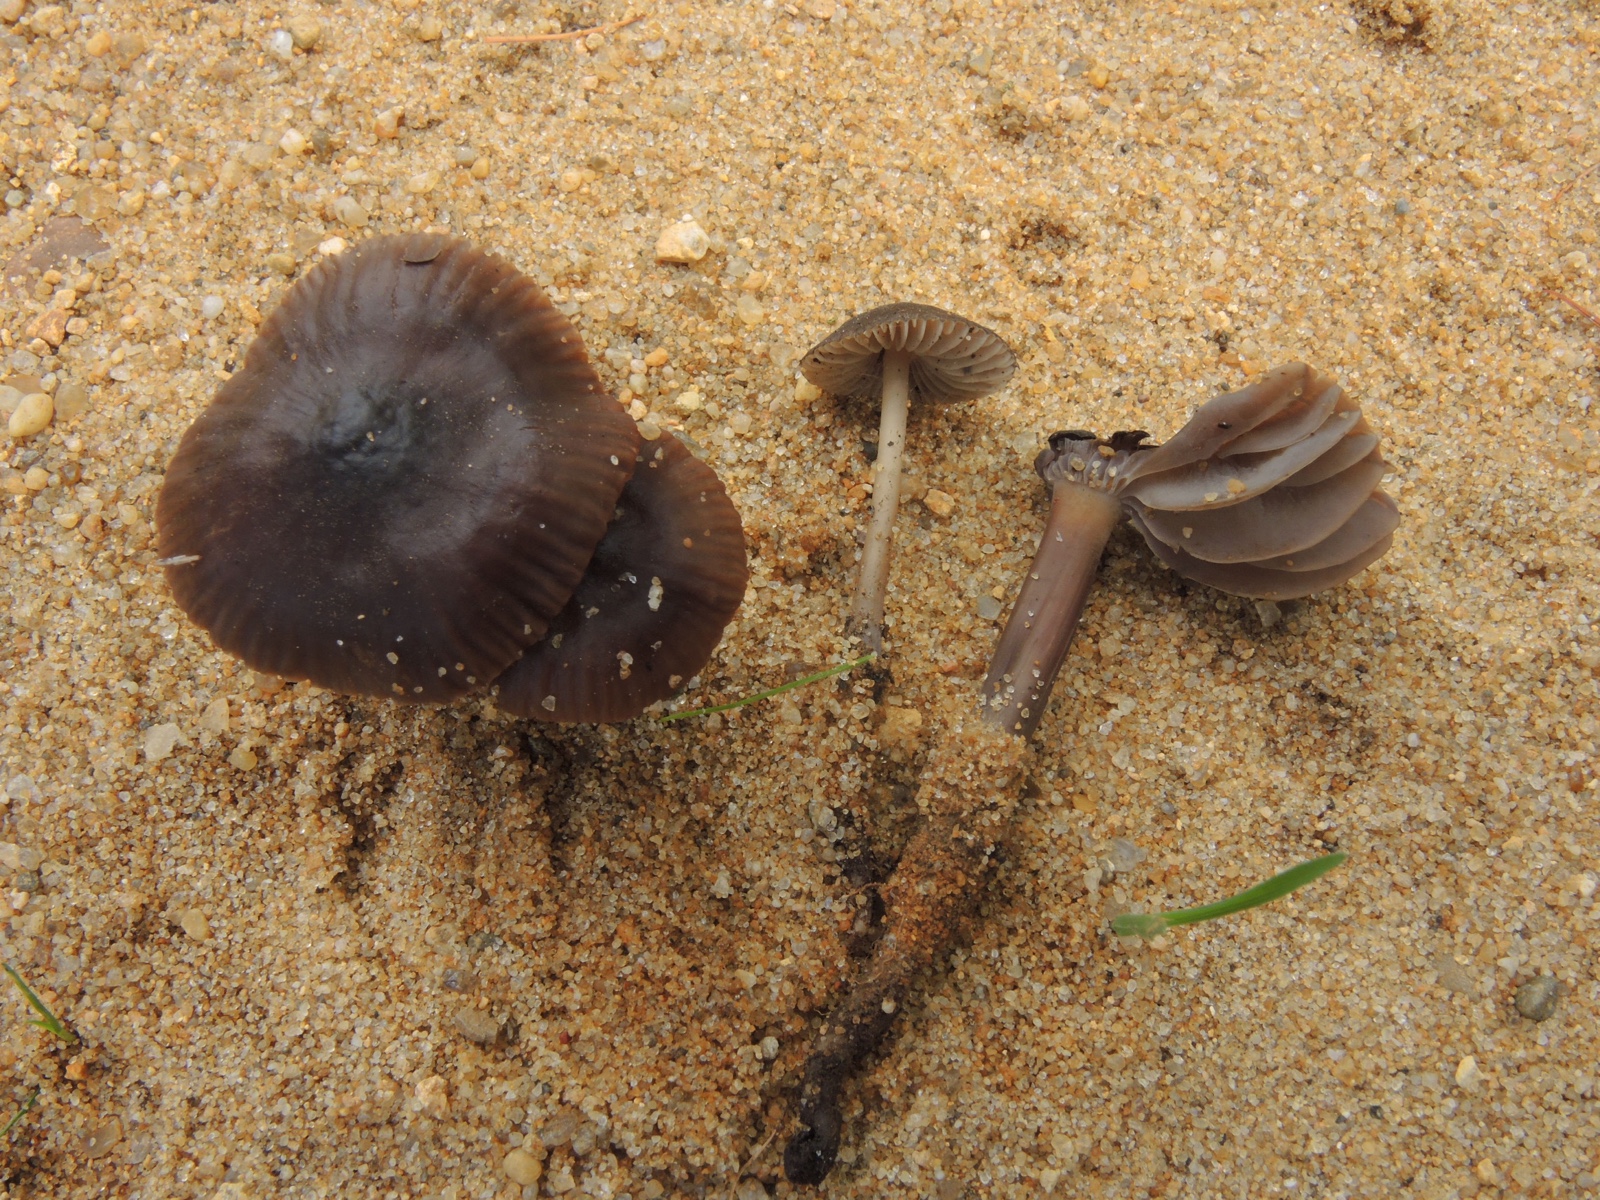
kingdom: Fungi
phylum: Basidiomycota
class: Agaricomycetes
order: Agaricales
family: Mycenaceae
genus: Mycena
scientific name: Mycena megaspora
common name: brusk-huesvamp
